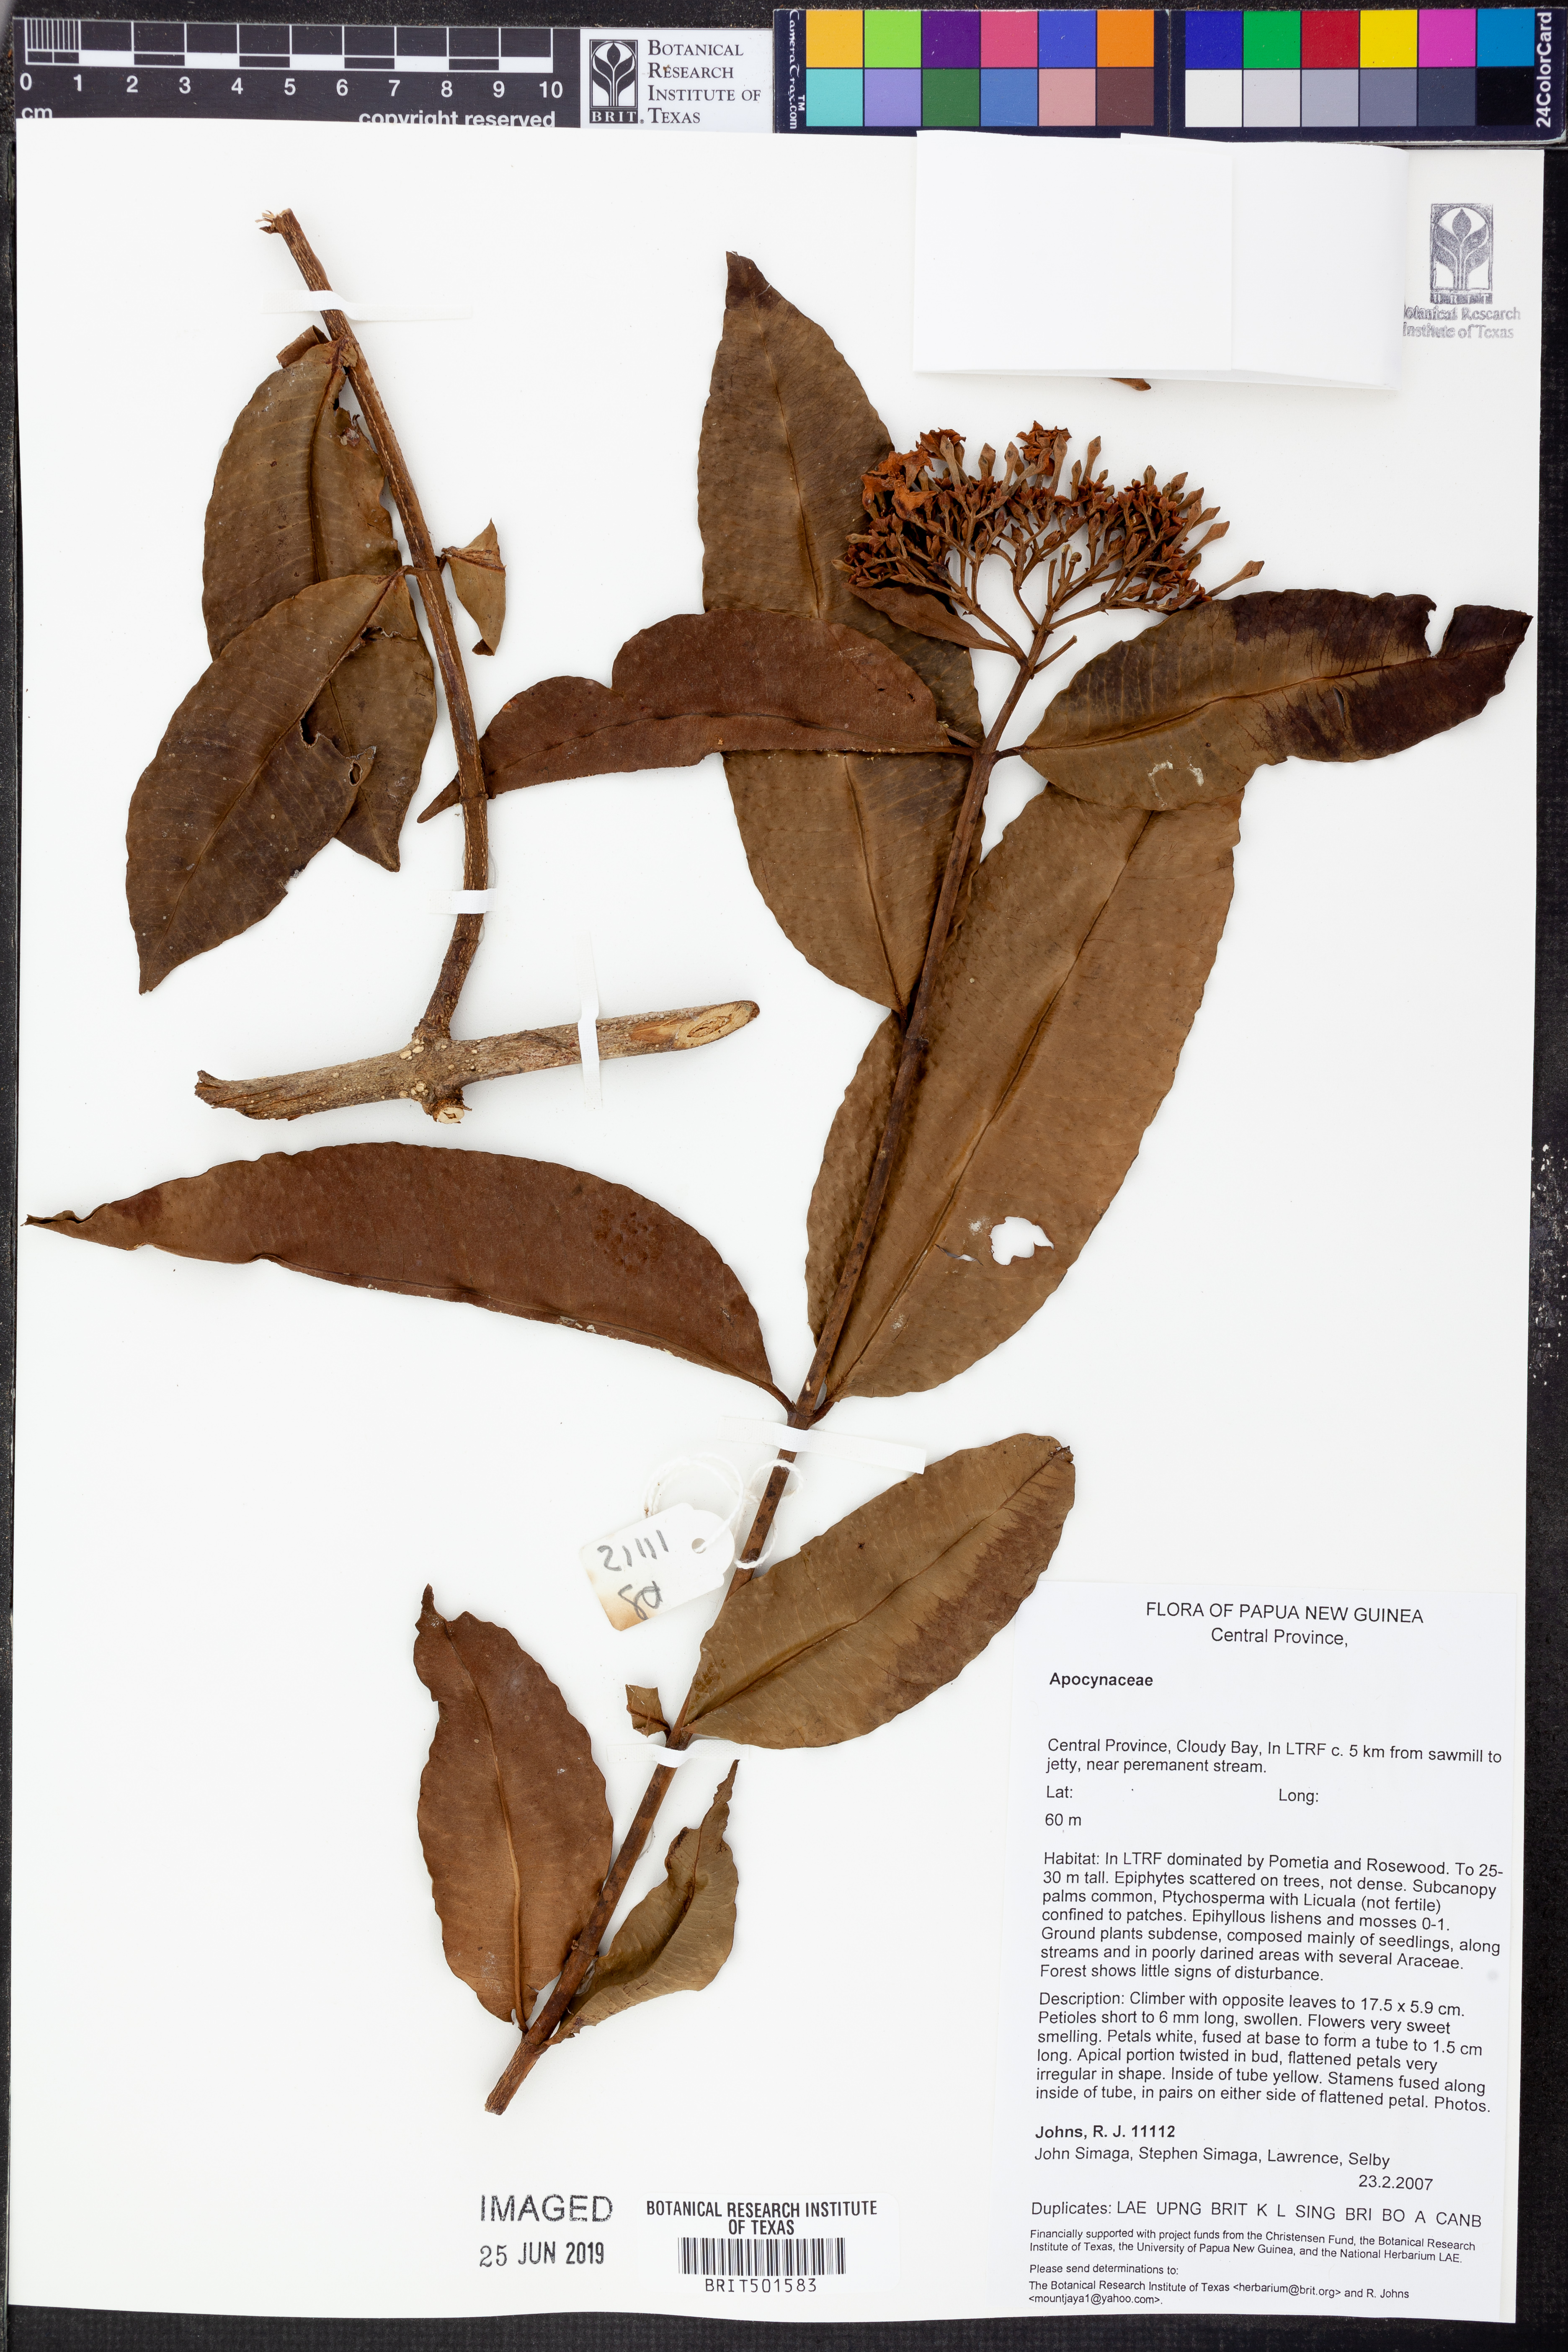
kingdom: Plantae
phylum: Tracheophyta
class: Magnoliopsida
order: Gentianales
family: Apocynaceae
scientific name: Apocynaceae
